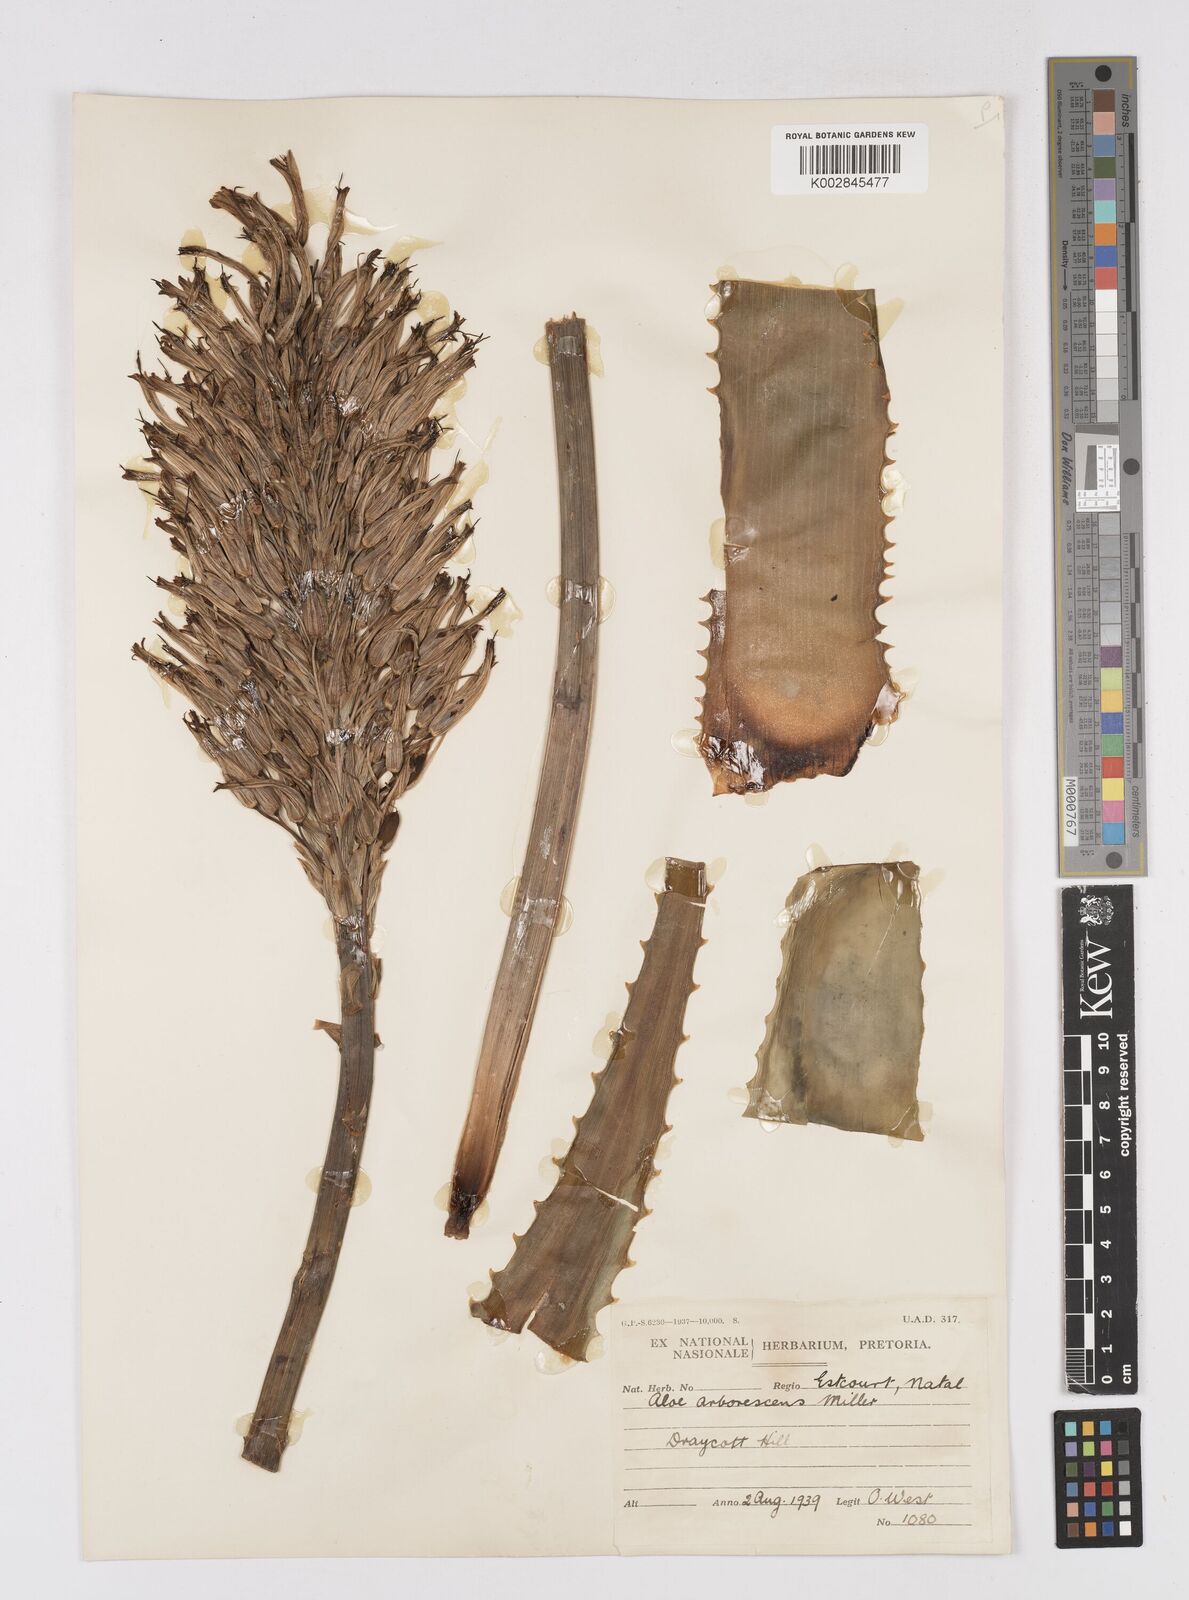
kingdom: Plantae
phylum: Tracheophyta
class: Liliopsida
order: Asparagales
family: Asphodelaceae
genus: Aloe
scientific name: Aloe arborescens
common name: Candelabra aloe
